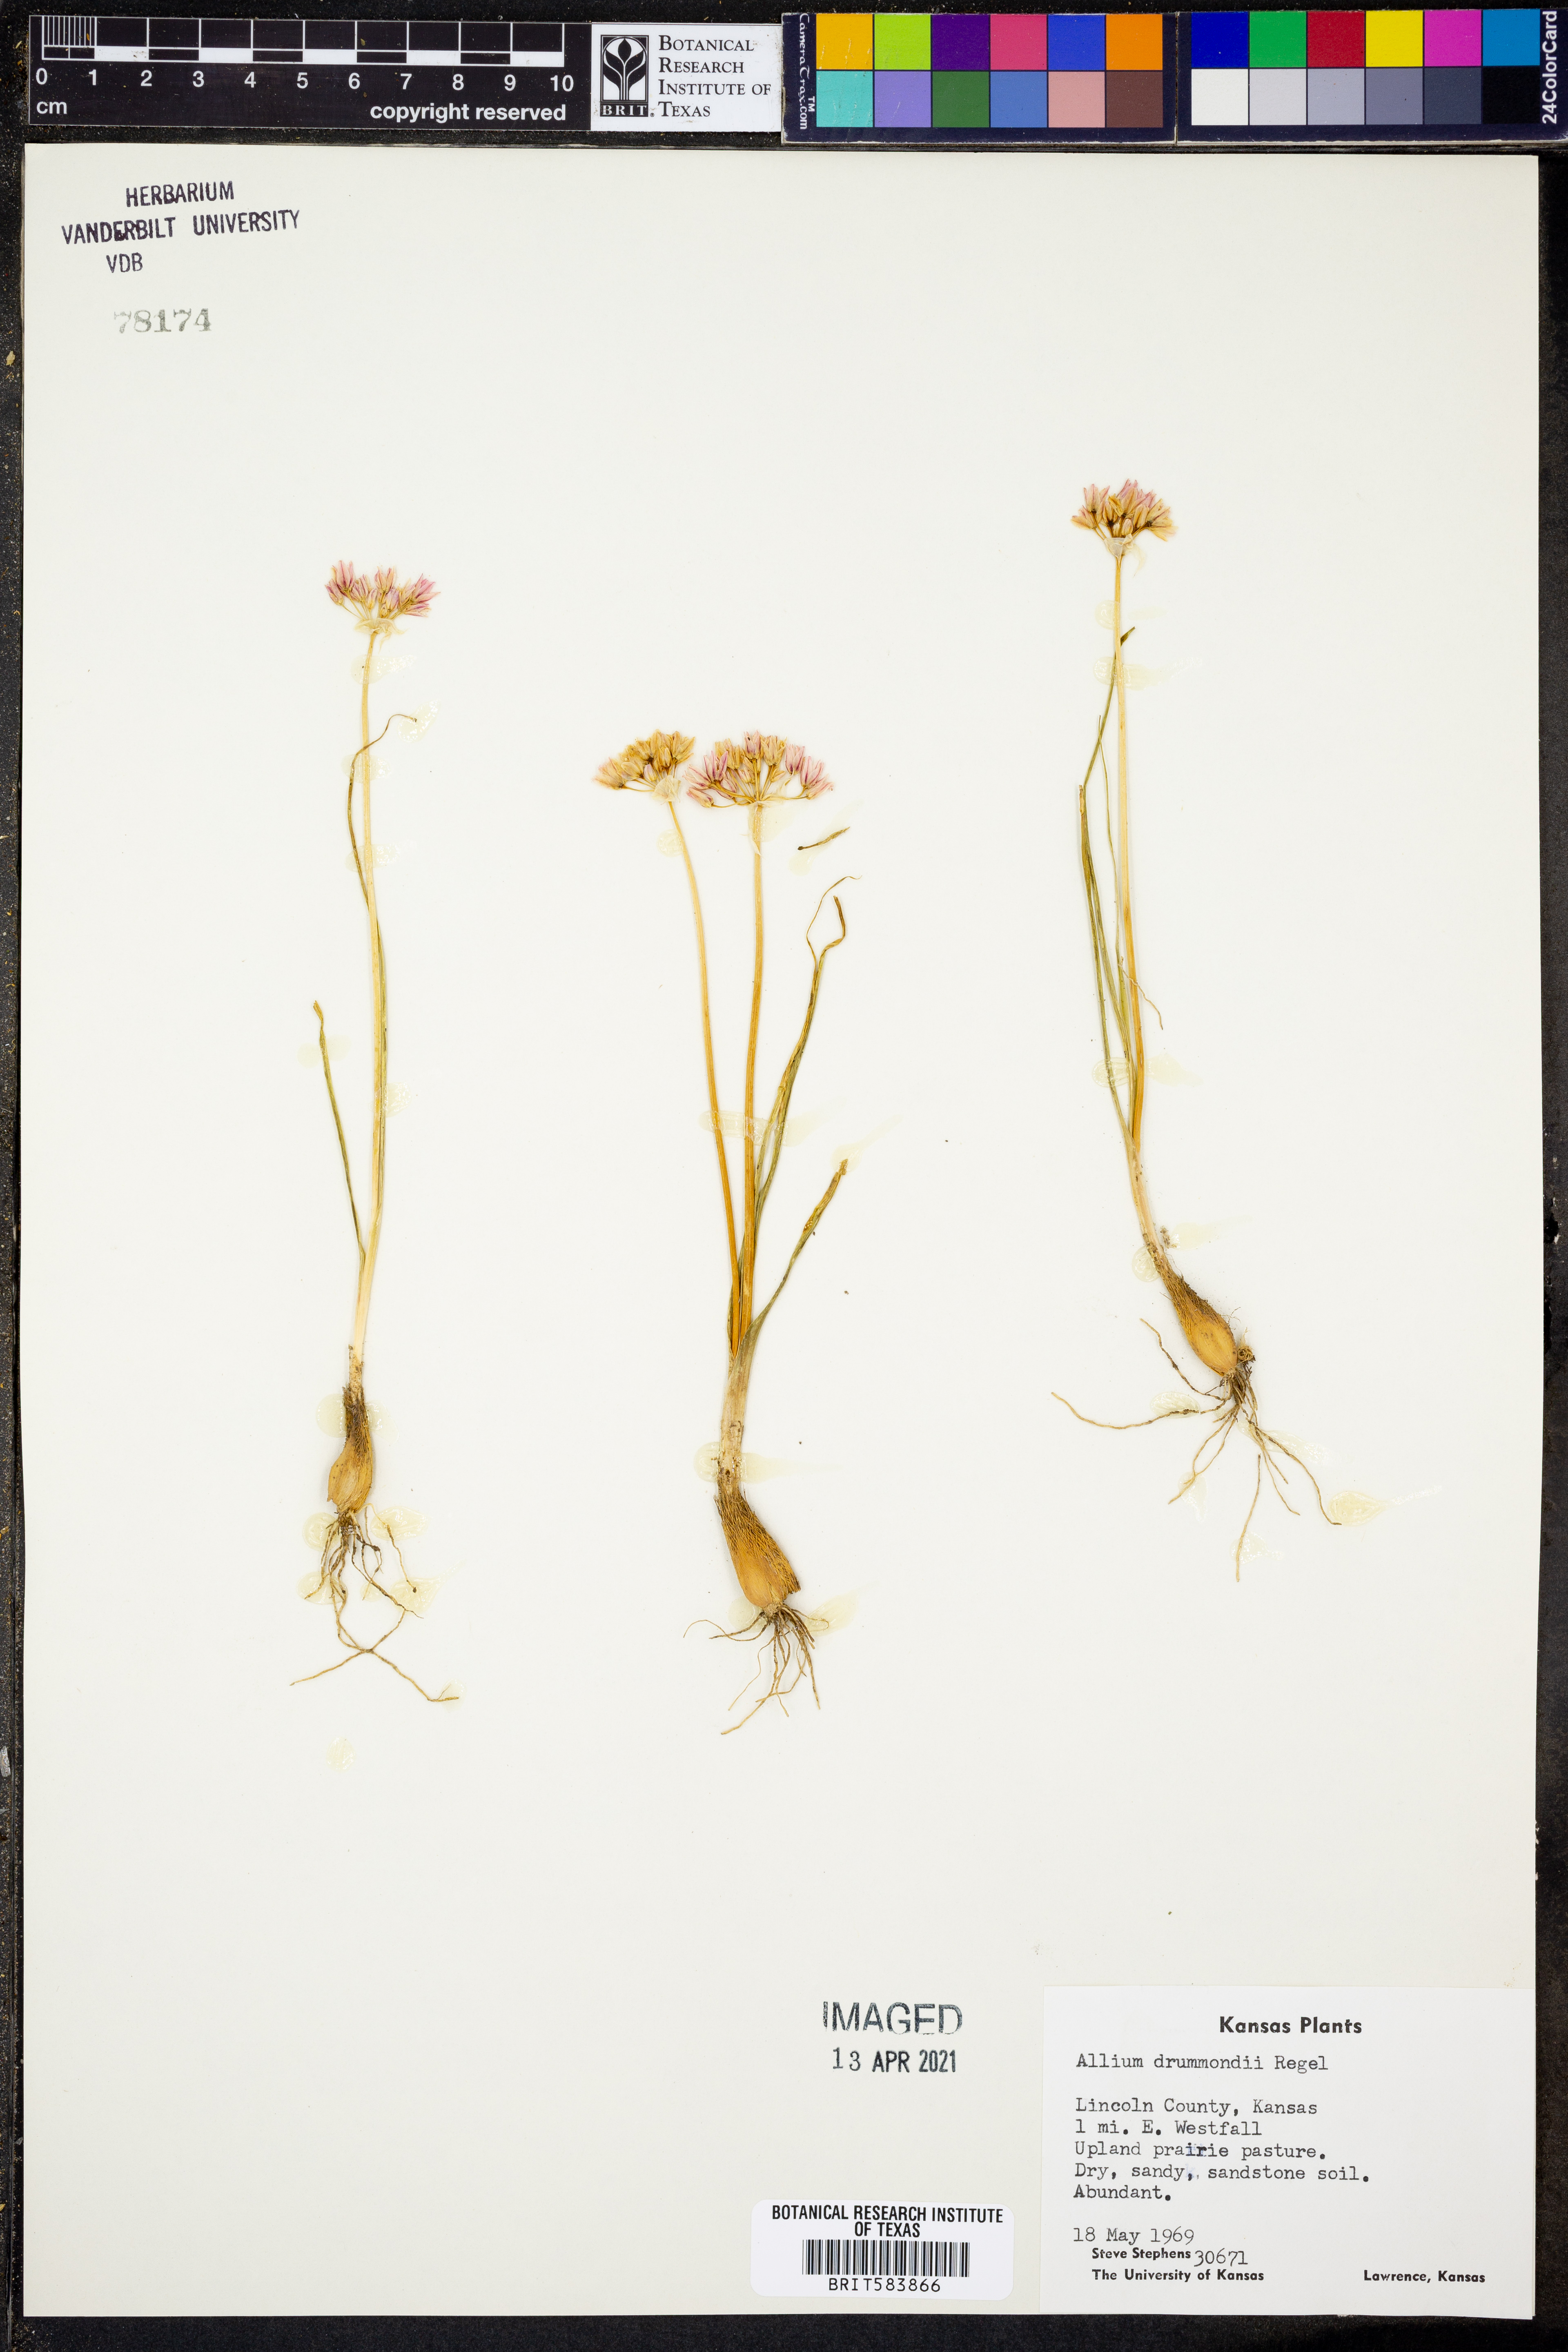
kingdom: Plantae
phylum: Tracheophyta
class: Liliopsida
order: Asparagales
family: Amaryllidaceae
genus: Allium
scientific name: Allium drummondii
